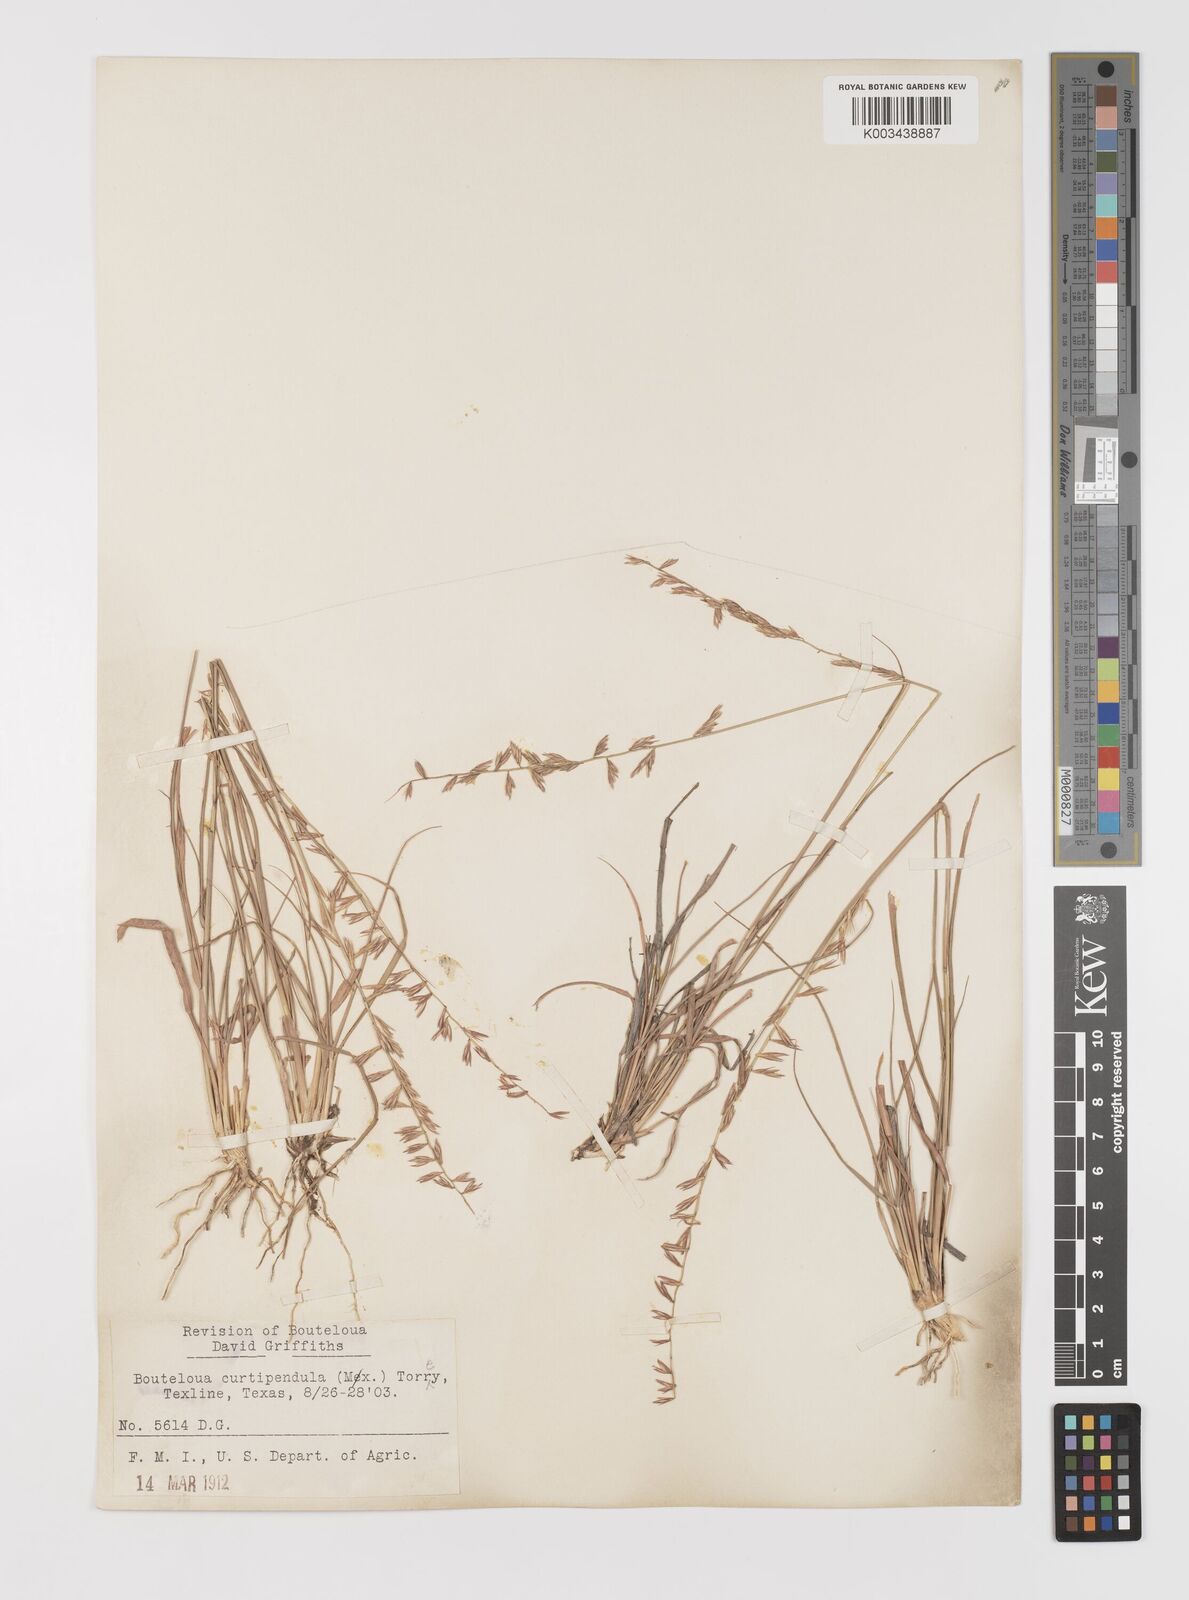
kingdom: Plantae
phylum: Tracheophyta
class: Liliopsida
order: Poales
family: Poaceae
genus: Bouteloua
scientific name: Bouteloua curtipendula
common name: Side-oats grama
